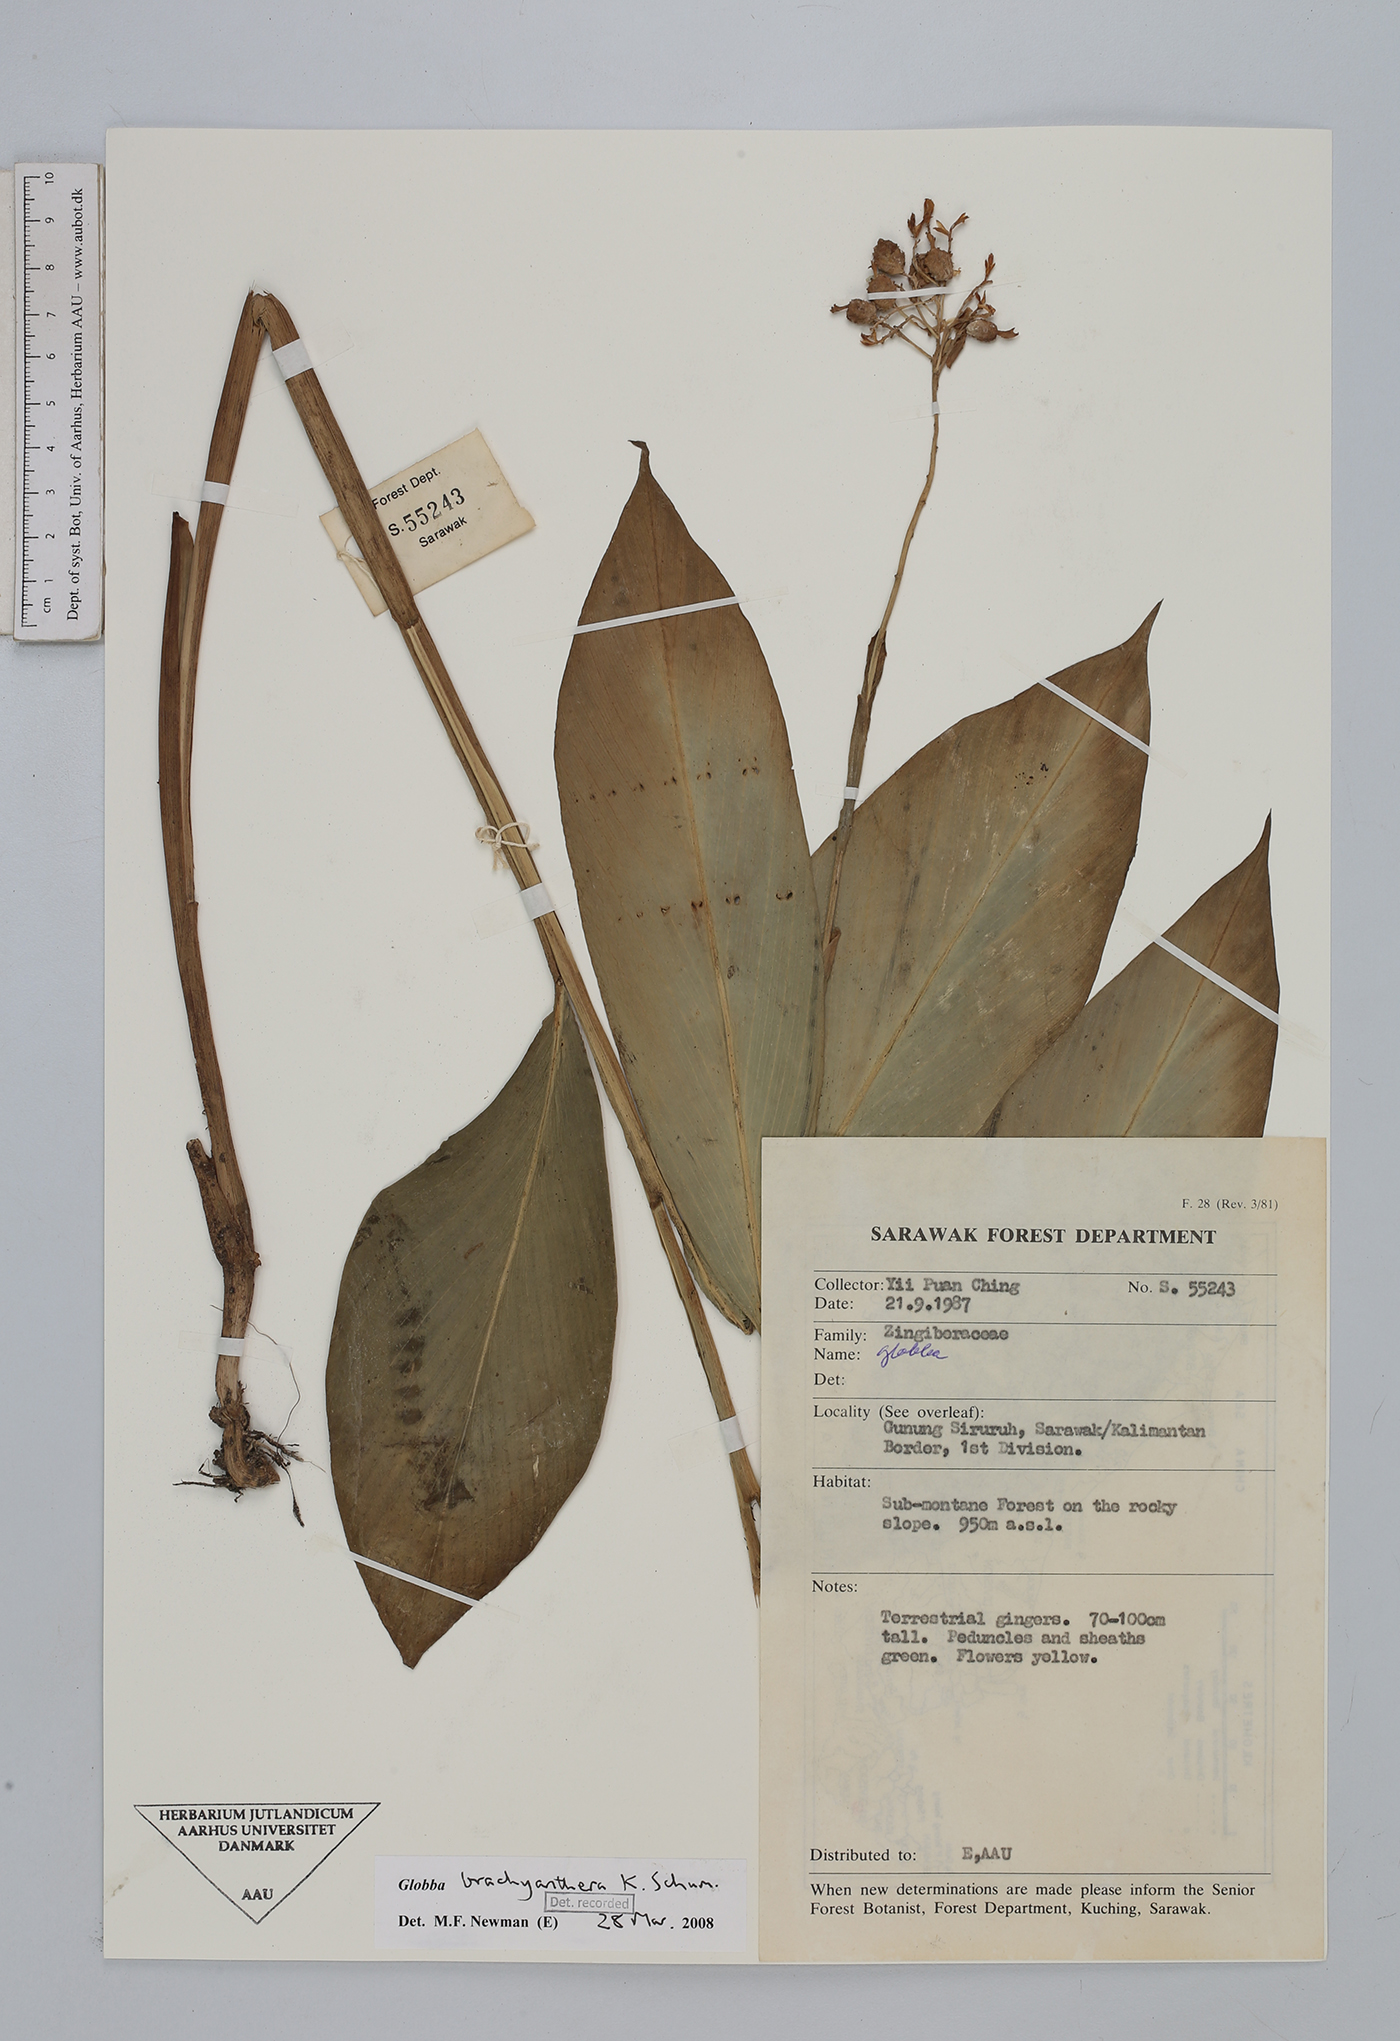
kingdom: Plantae
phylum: Tracheophyta
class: Liliopsida
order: Zingiberales
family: Zingiberaceae
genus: Globba
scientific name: Globba atrosanguinea
